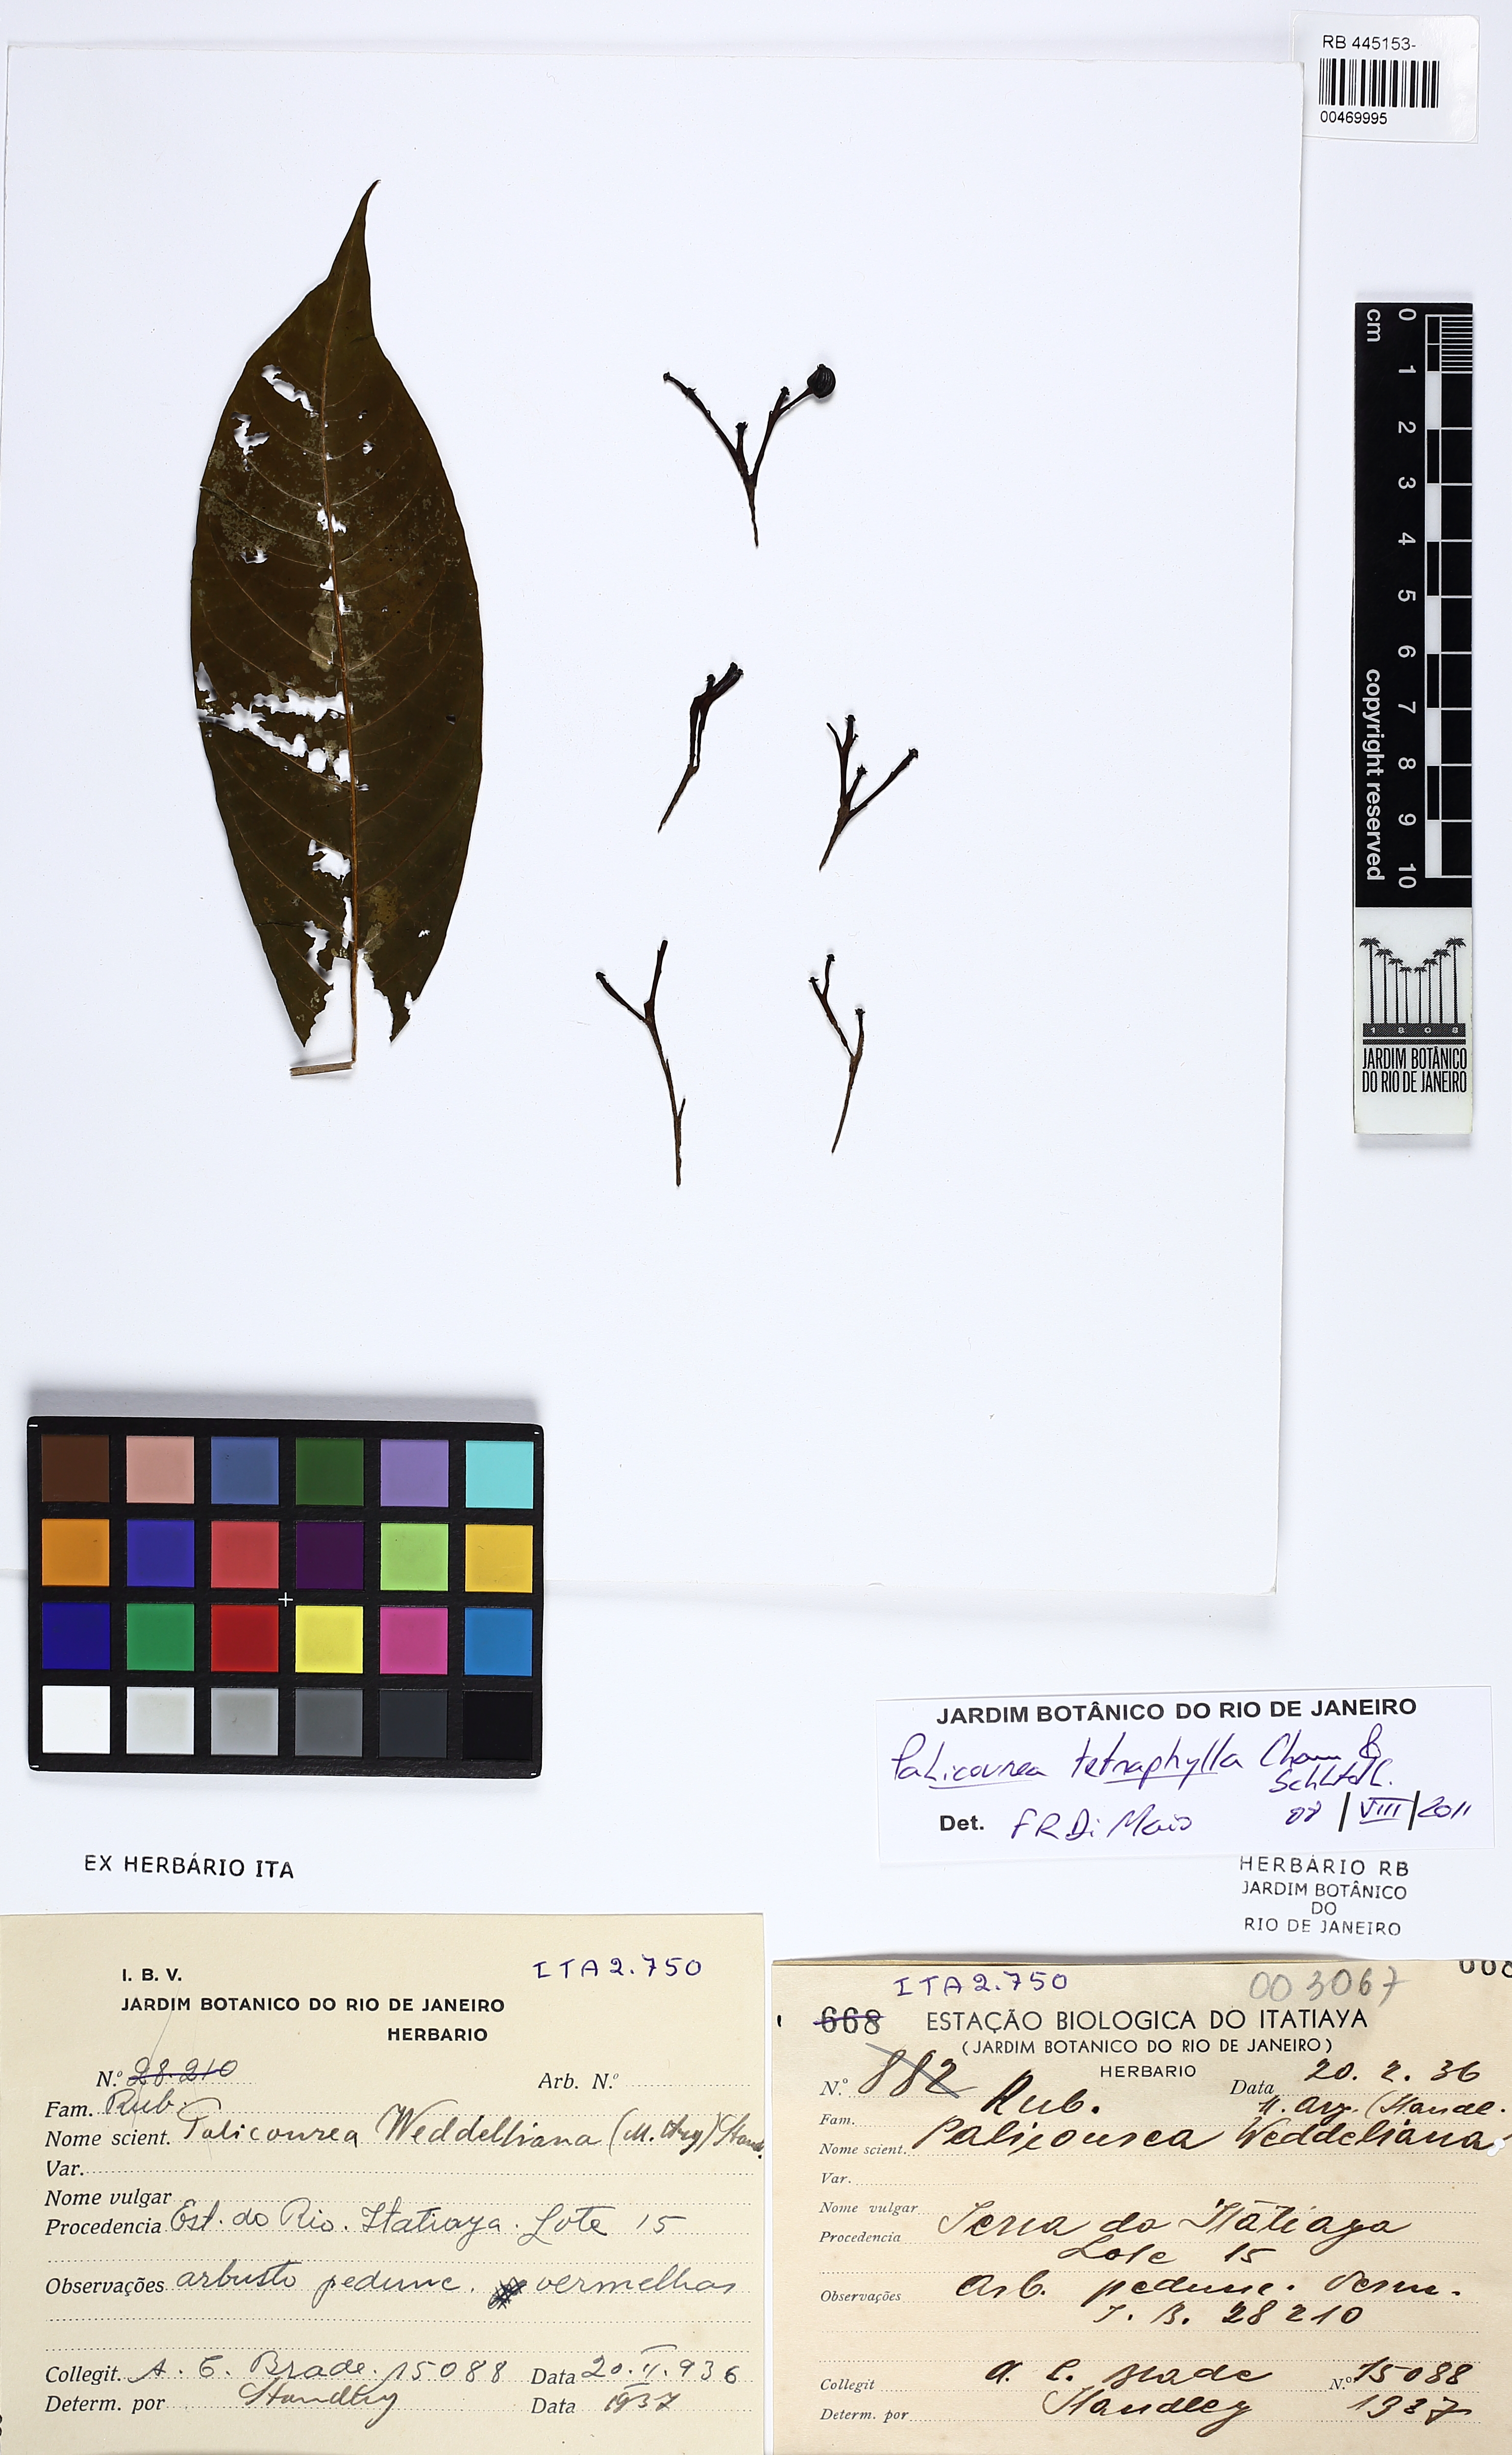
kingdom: Plantae
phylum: Tracheophyta
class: Magnoliopsida
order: Gentianales
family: Rubiaceae
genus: Palicourea
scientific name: Palicourea tetraphylla
